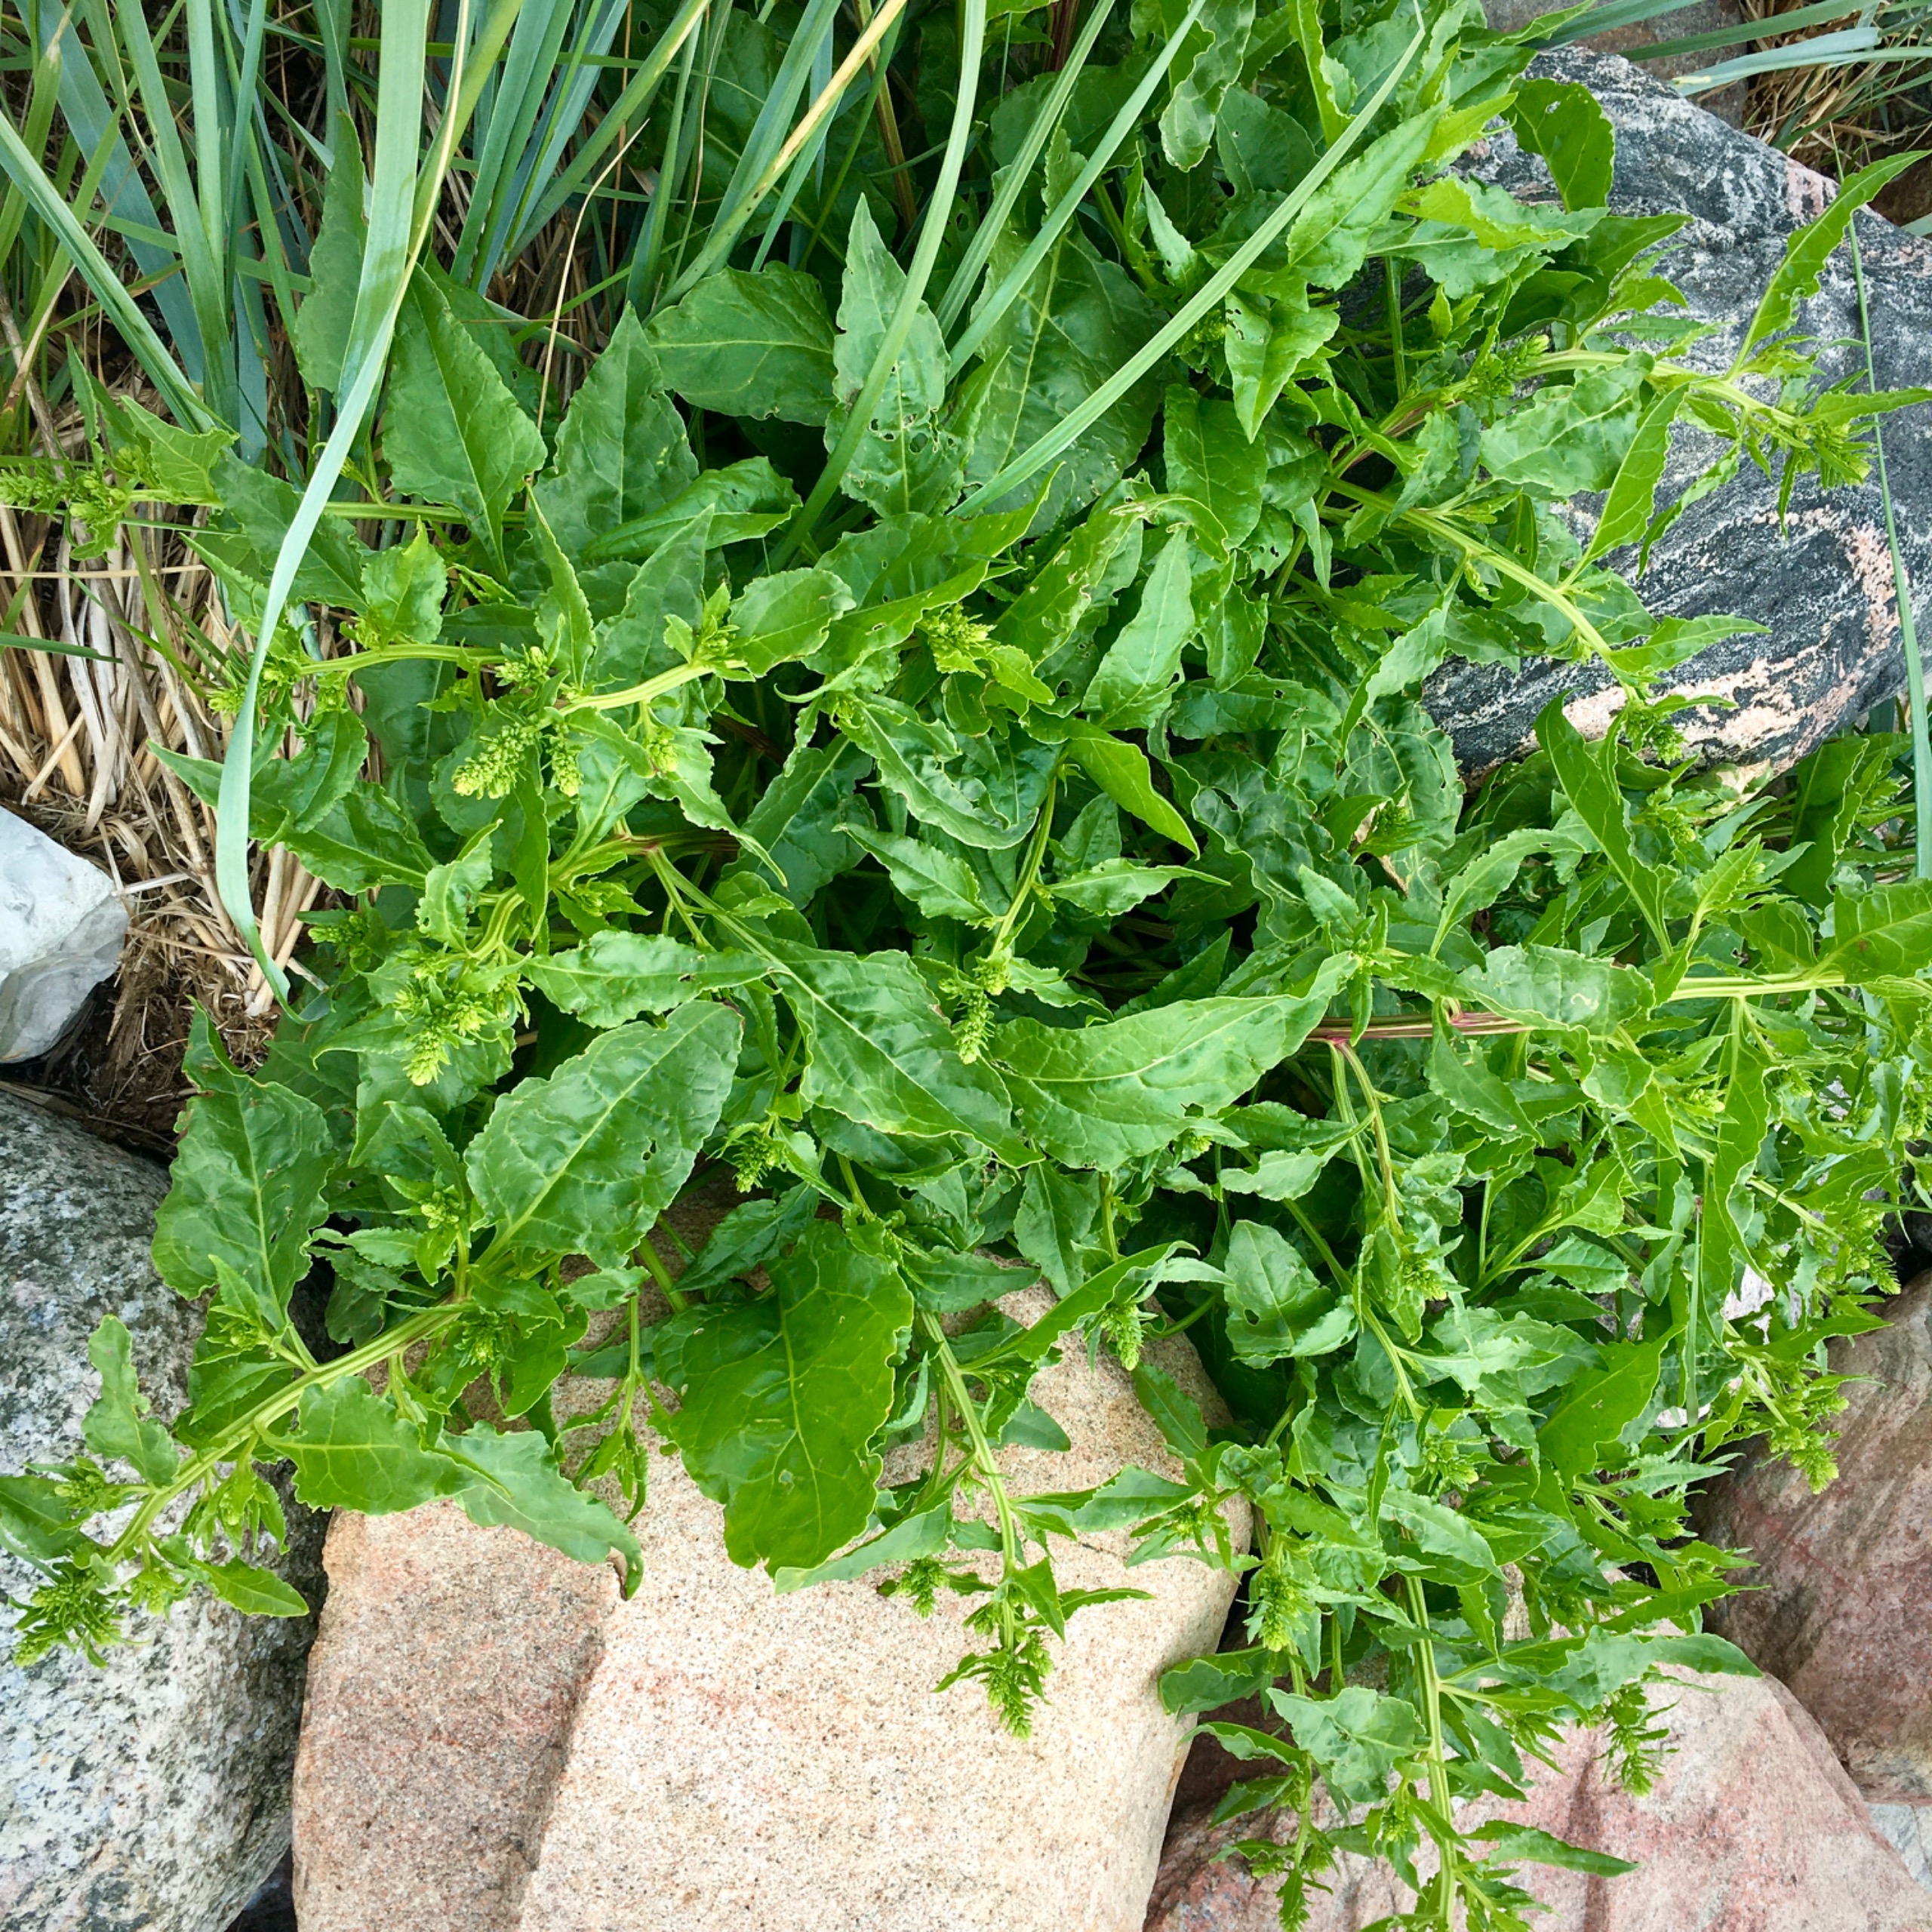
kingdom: Plantae
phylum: Tracheophyta
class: Magnoliopsida
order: Caryophyllales
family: Amaranthaceae
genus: Beta
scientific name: Beta maritima
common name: Strand-bede
